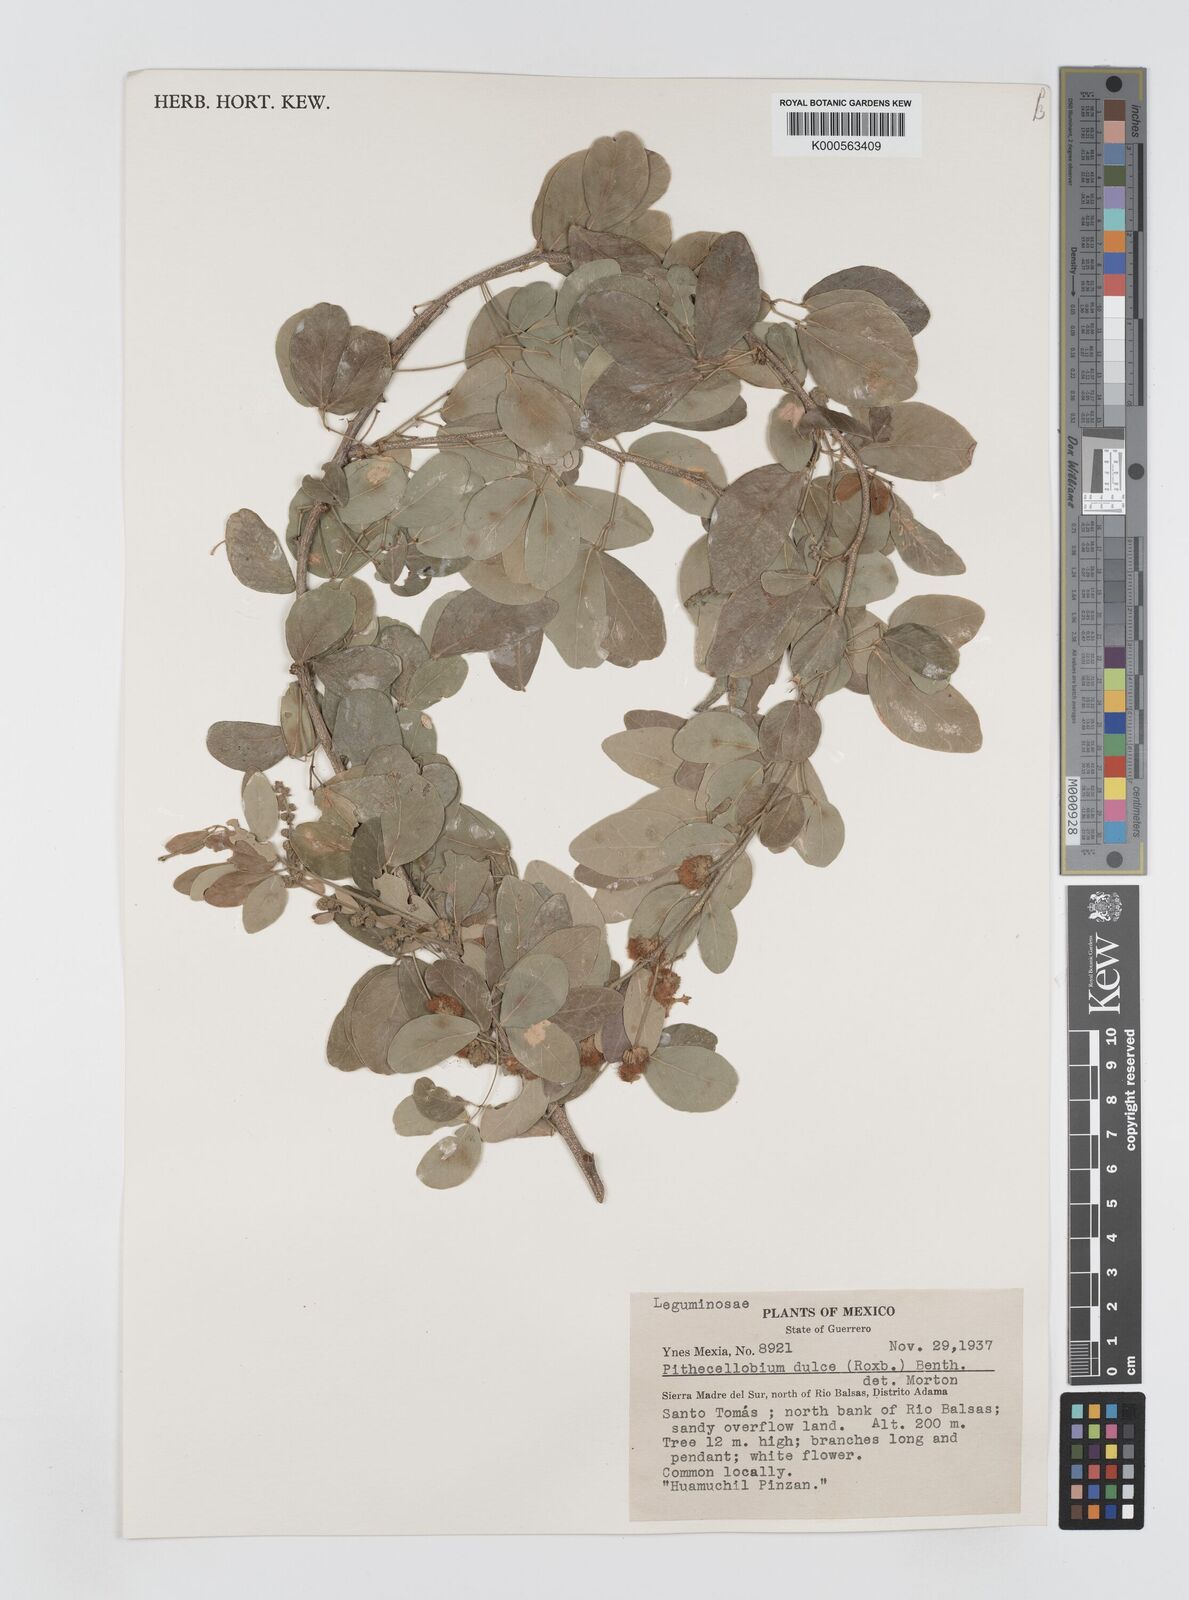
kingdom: Plantae
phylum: Tracheophyta
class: Magnoliopsida
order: Fabales
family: Fabaceae
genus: Pithecellobium
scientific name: Pithecellobium dulce
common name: Monkeypod
